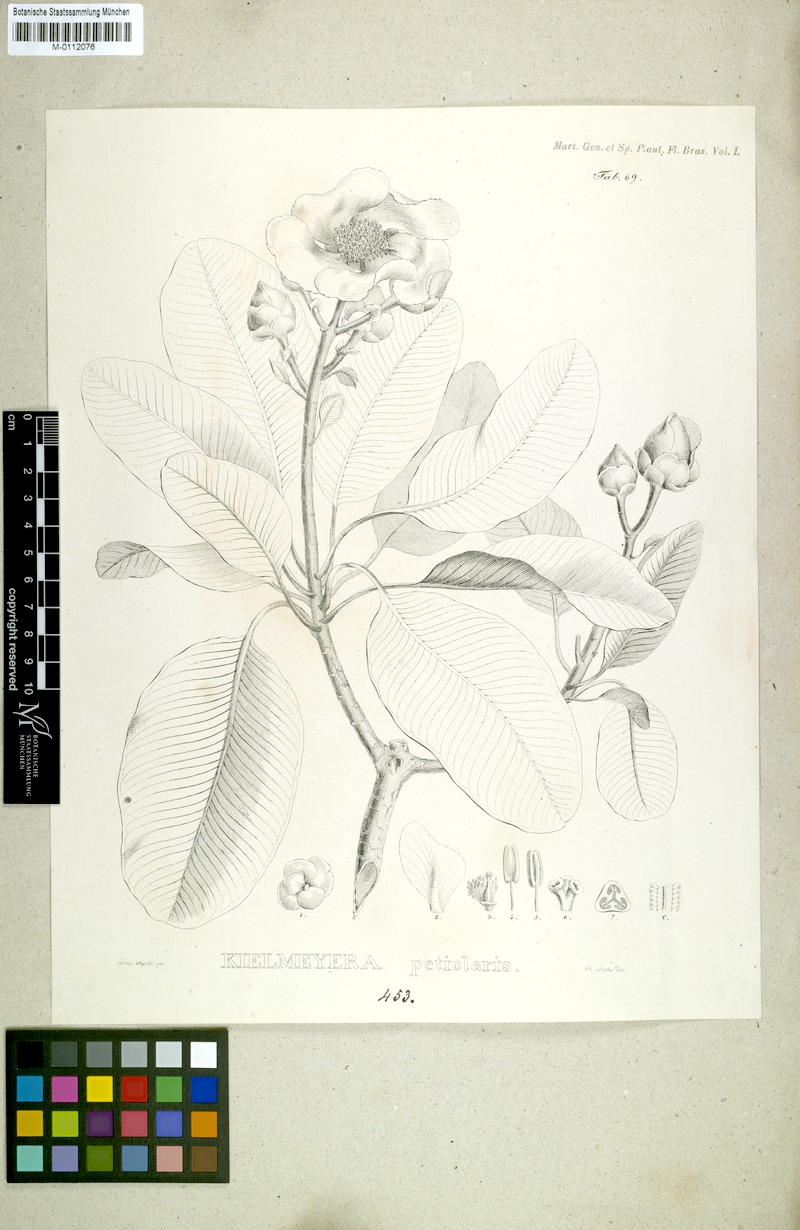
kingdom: Plantae
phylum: Tracheophyta
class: Magnoliopsida
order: Malpighiales
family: Calophyllaceae
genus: Kielmeyera
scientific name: Kielmeyera petiolaris
